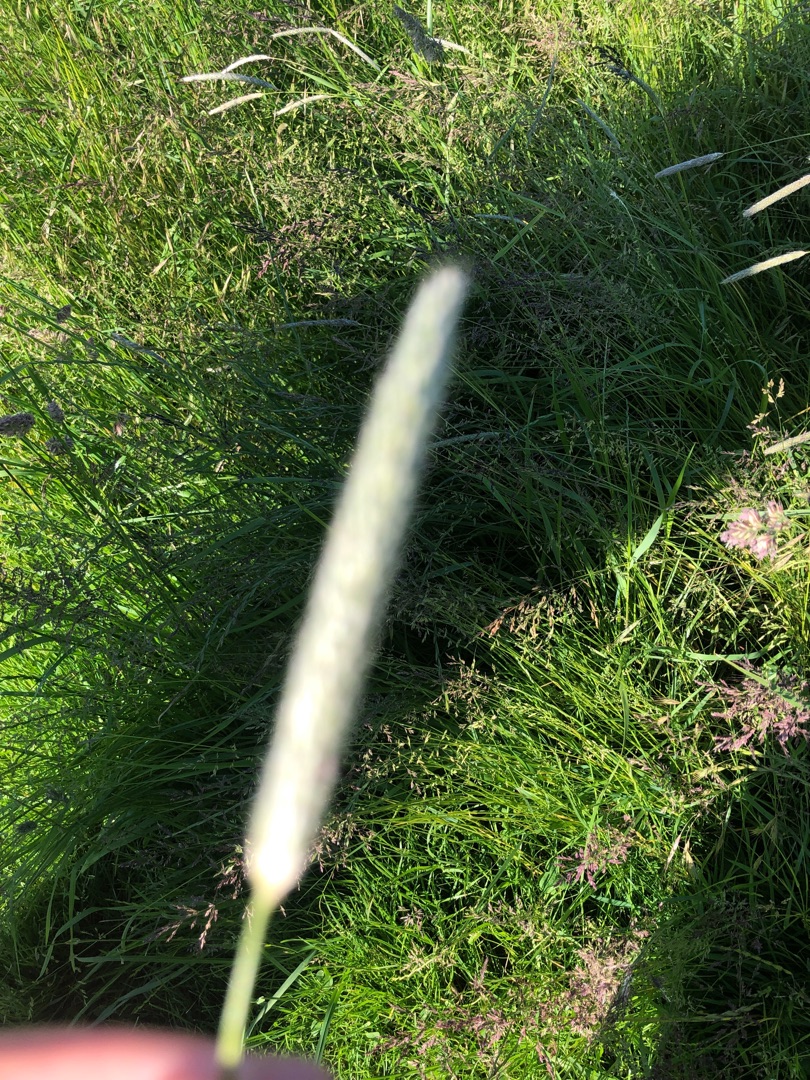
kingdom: Plantae
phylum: Tracheophyta
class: Liliopsida
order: Poales
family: Poaceae
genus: Alopecurus
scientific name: Alopecurus pratensis
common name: Eng-rævehale
